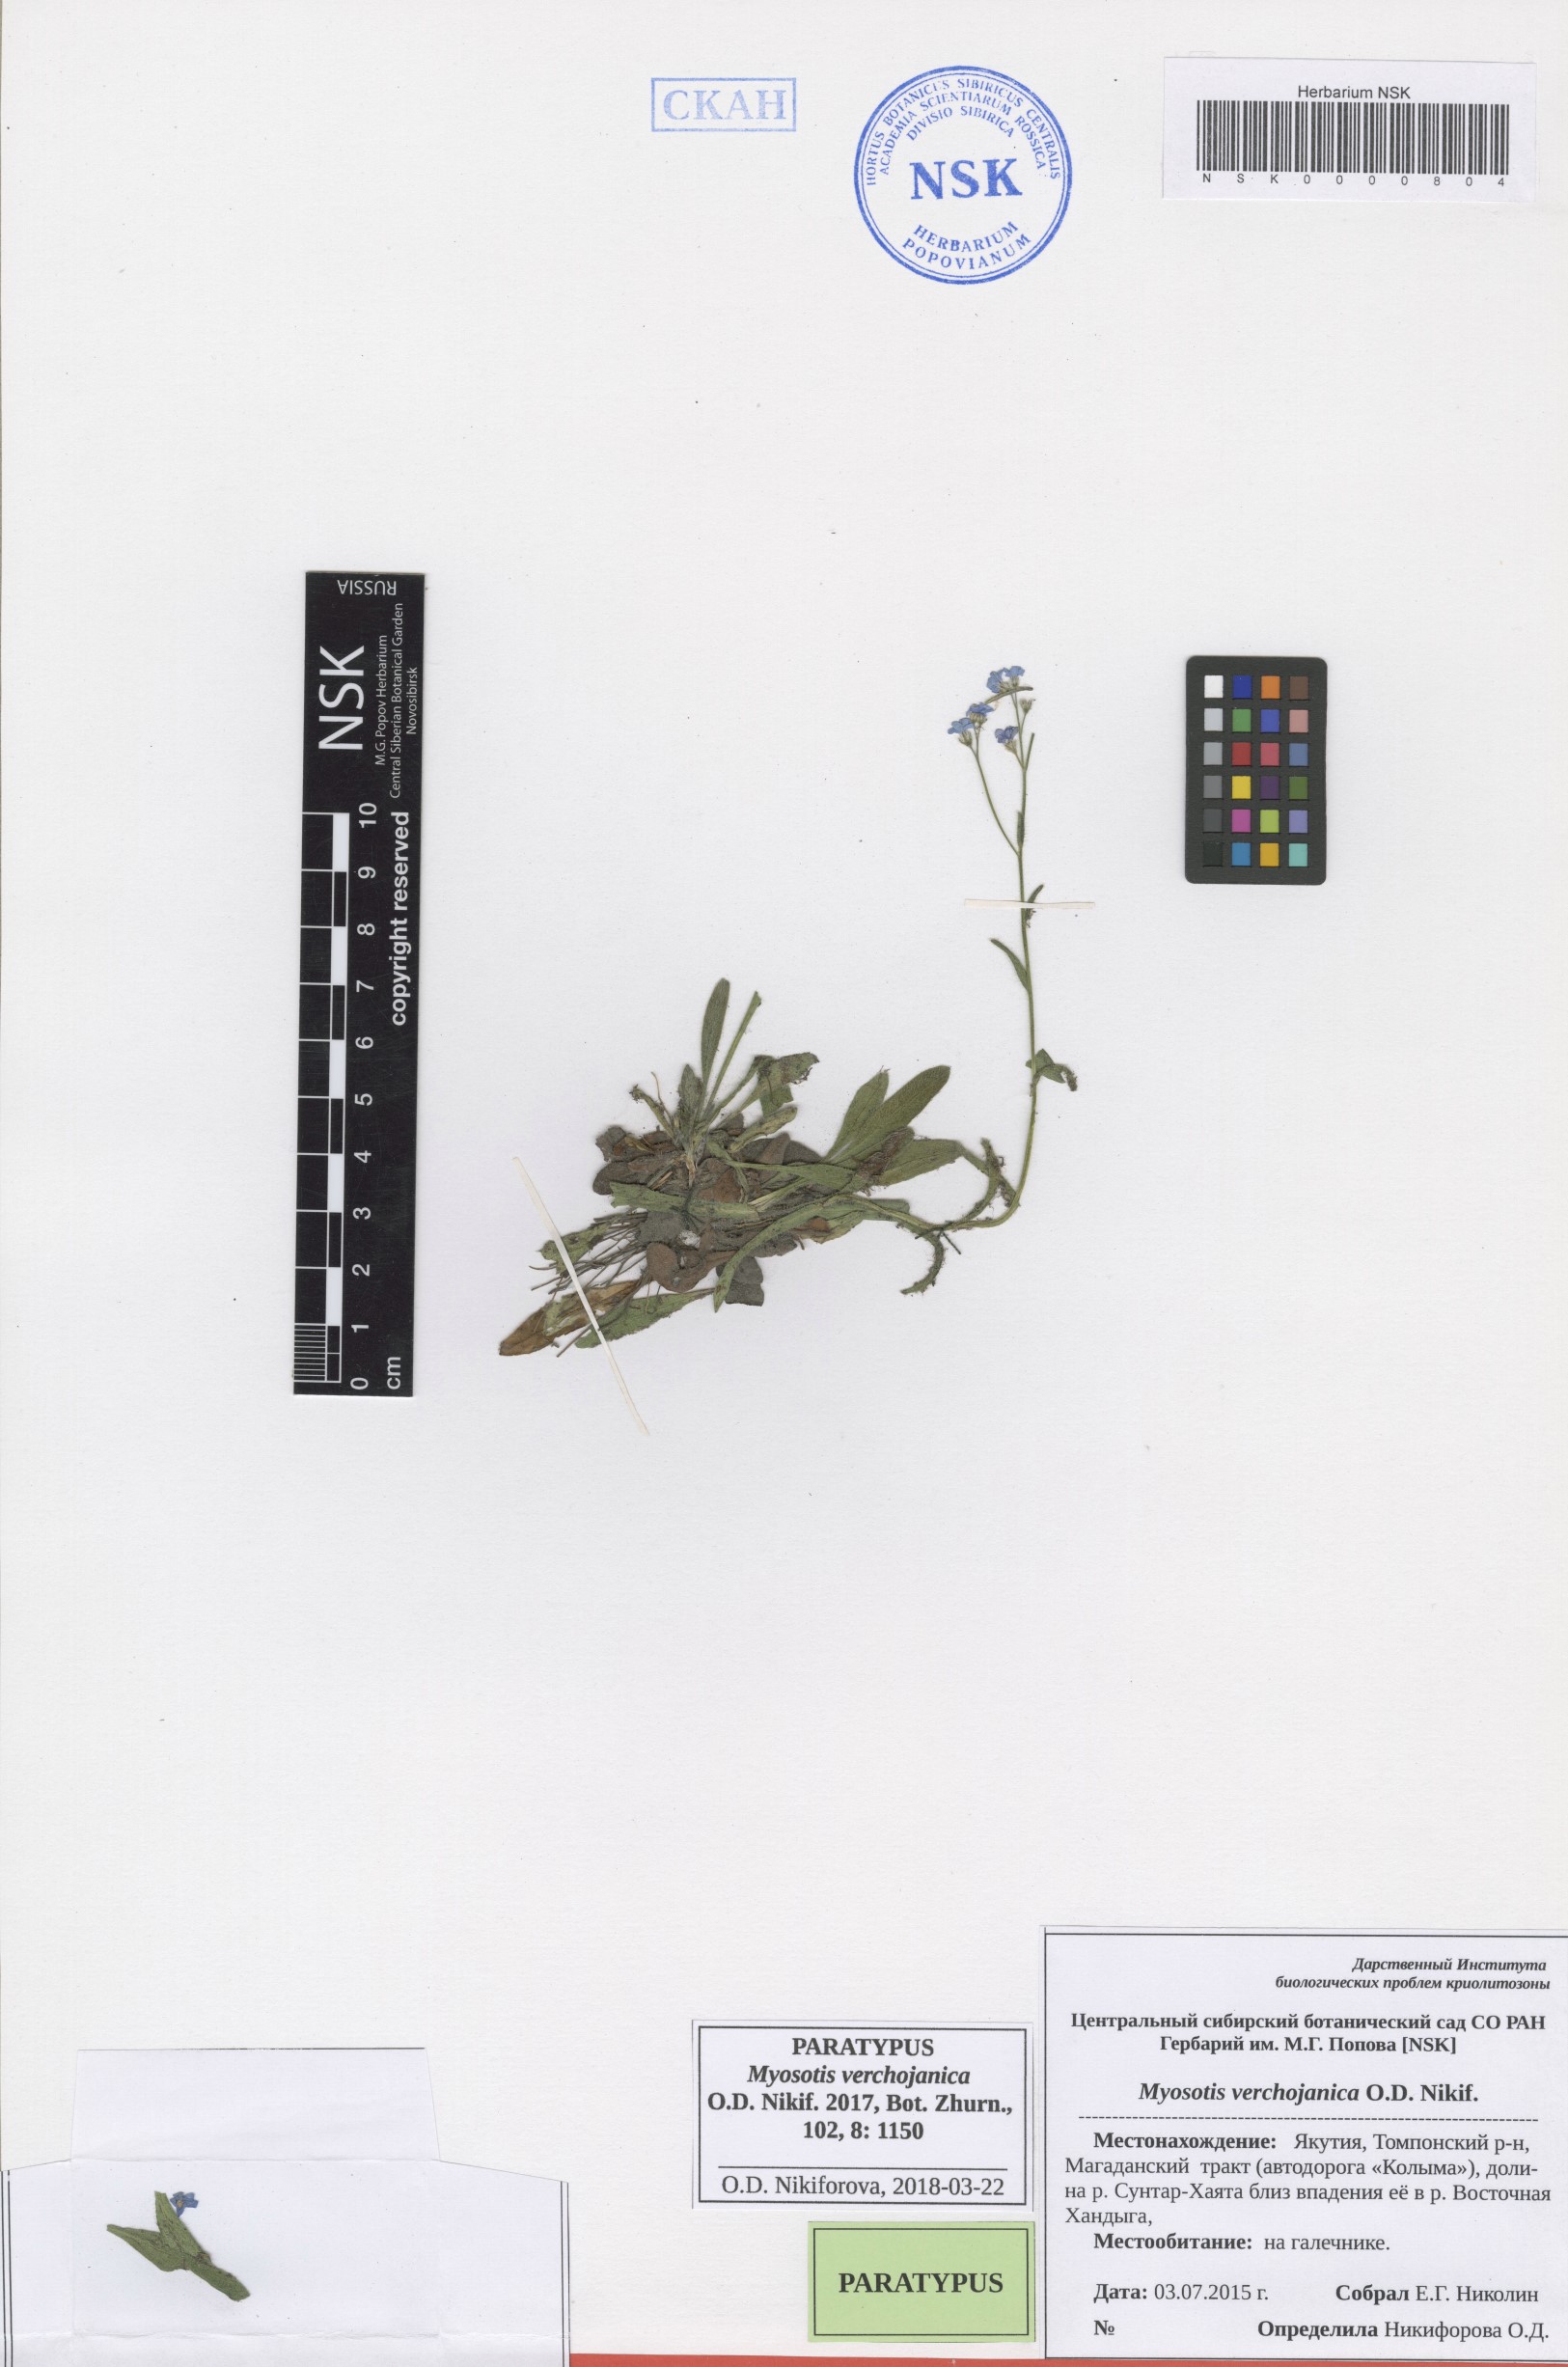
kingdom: Plantae
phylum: Tracheophyta
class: Magnoliopsida
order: Boraginales
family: Boraginaceae
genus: Myosotis
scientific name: Myosotis
